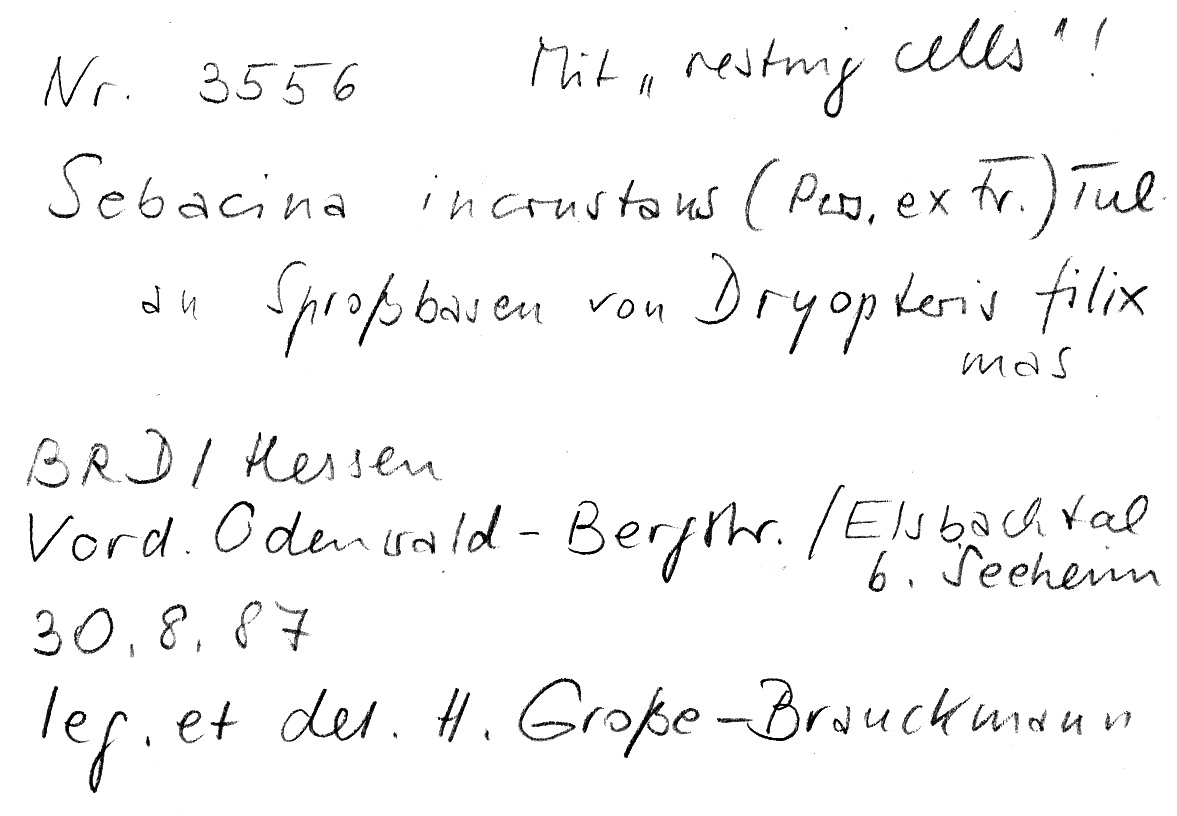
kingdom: Fungi
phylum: Basidiomycota
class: Agaricomycetes
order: Sebacinales
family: Sebacinaceae
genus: Sebacina
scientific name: Sebacina incrustans
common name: Enveloping crust
